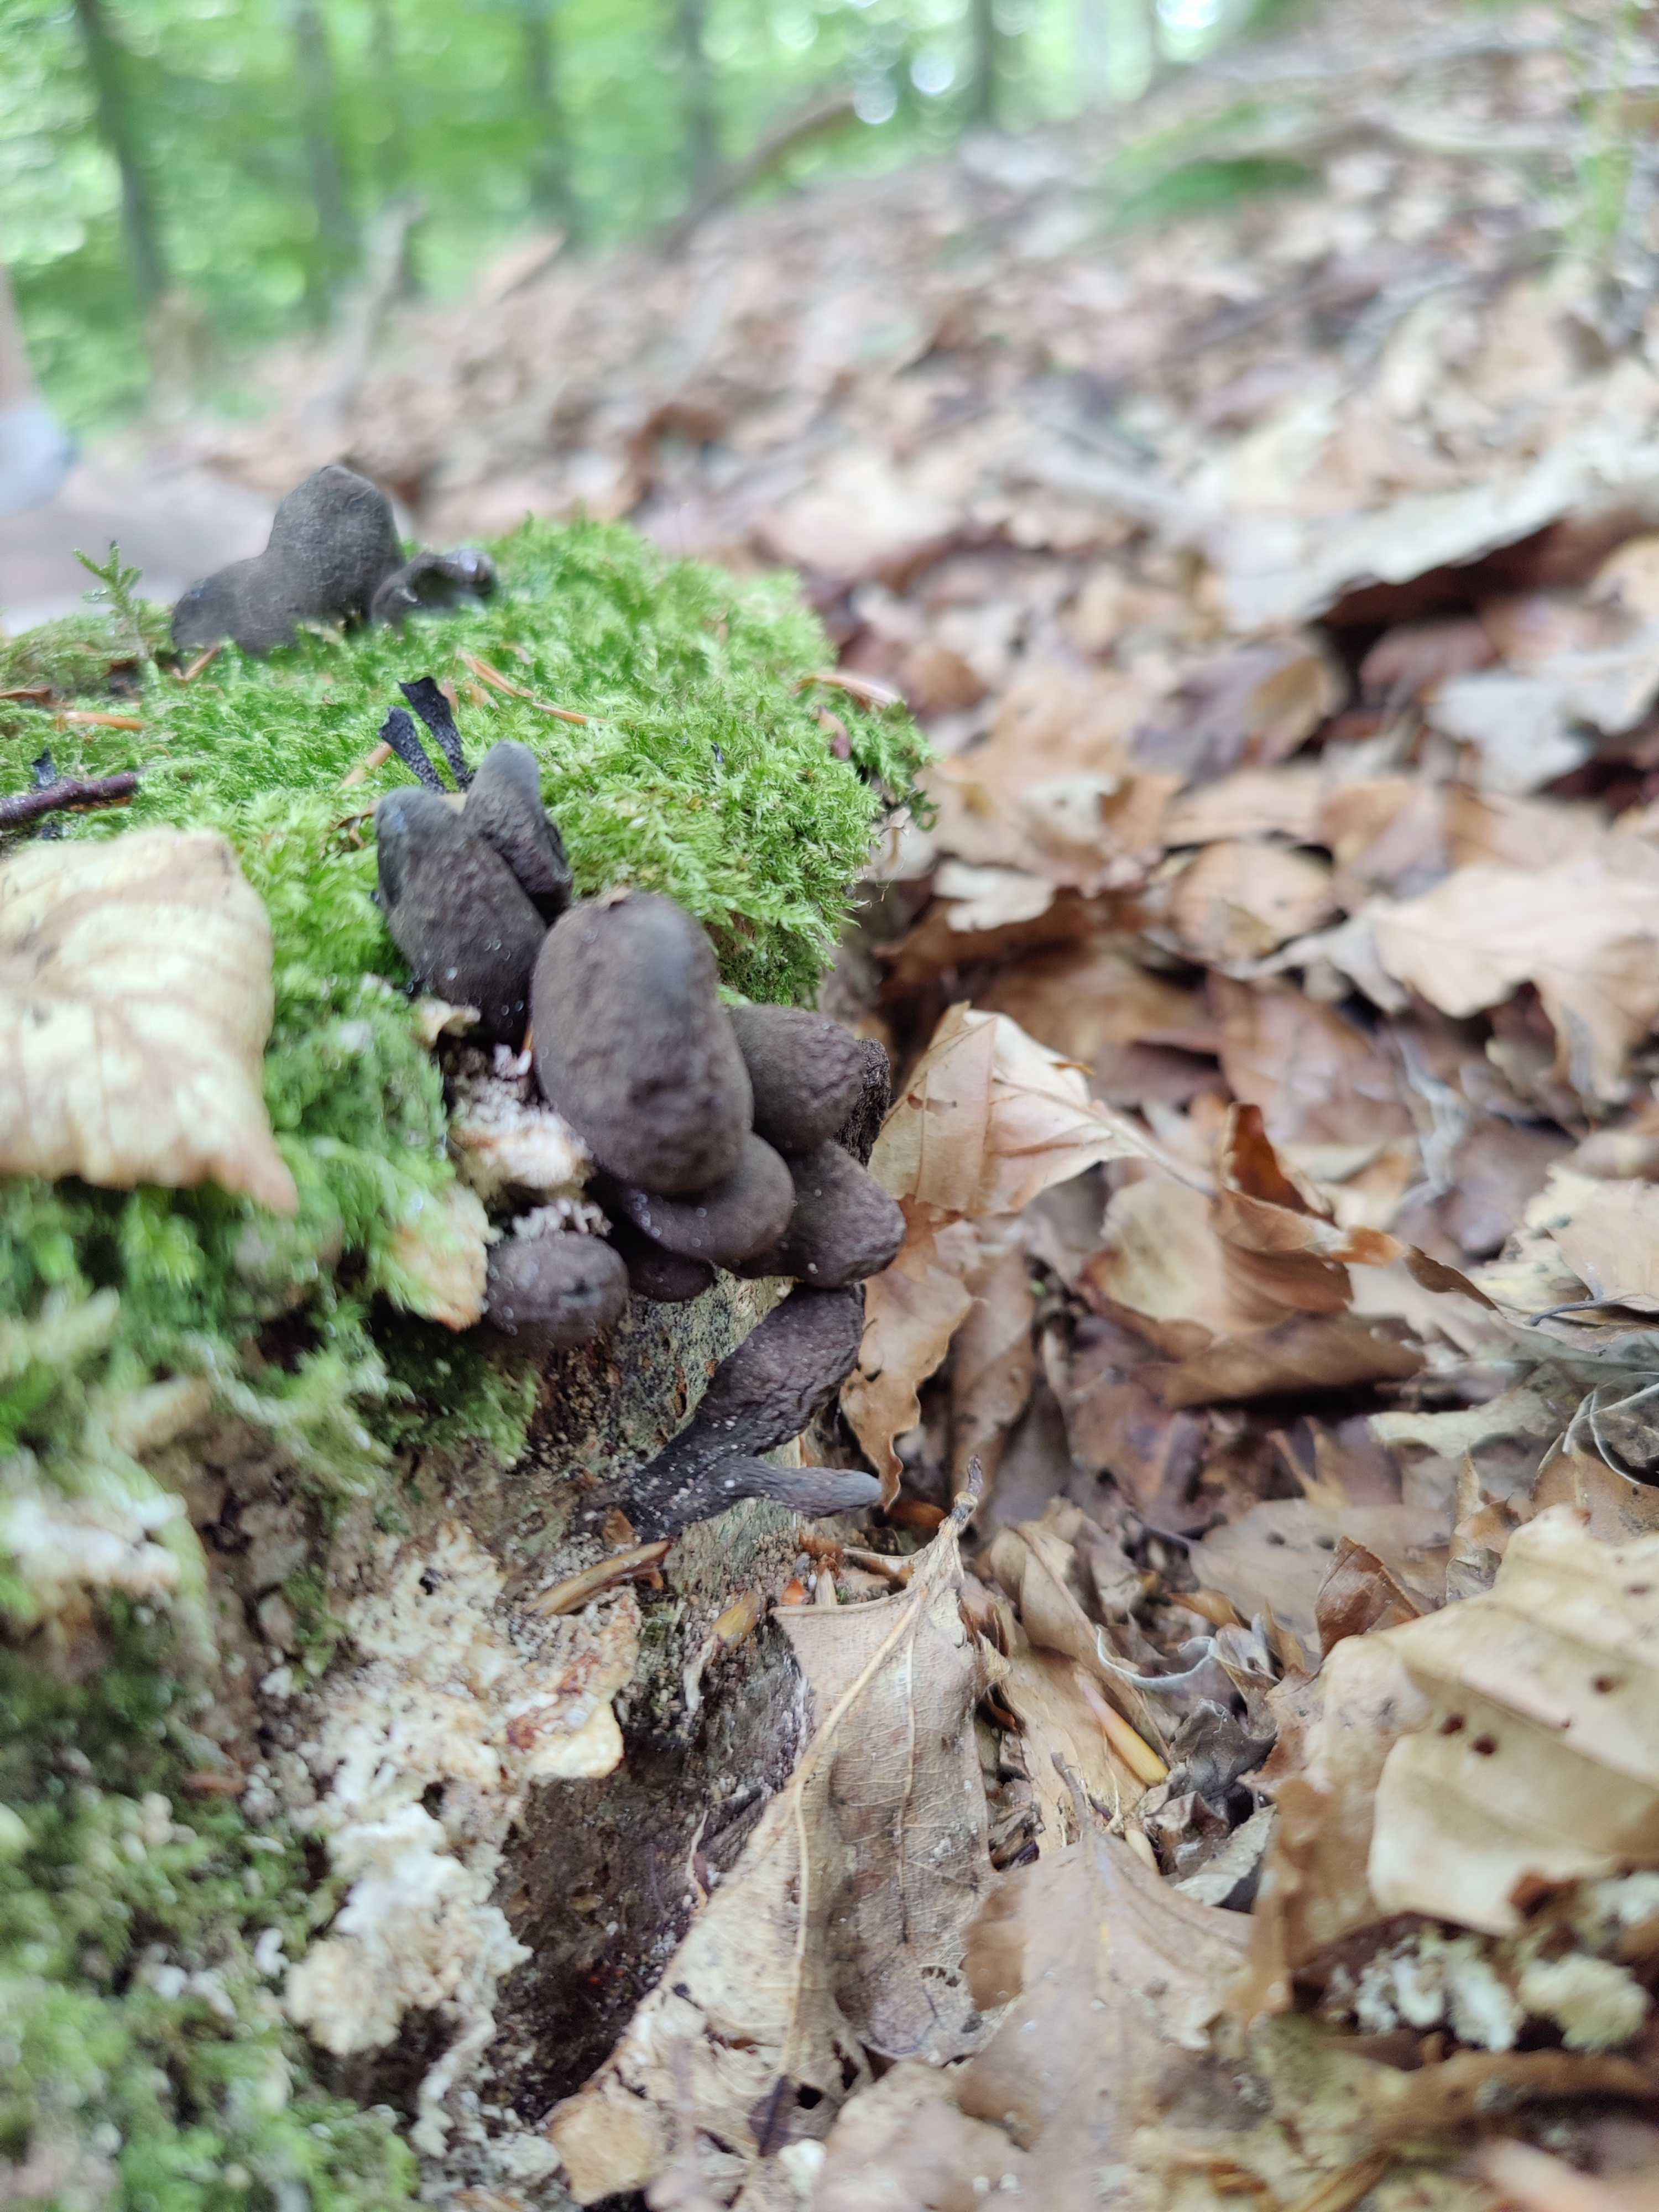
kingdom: Fungi
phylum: Ascomycota
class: Sordariomycetes
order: Xylariales
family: Xylariaceae
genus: Xylaria
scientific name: Xylaria polymorpha
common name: kølle-stødsvamp
